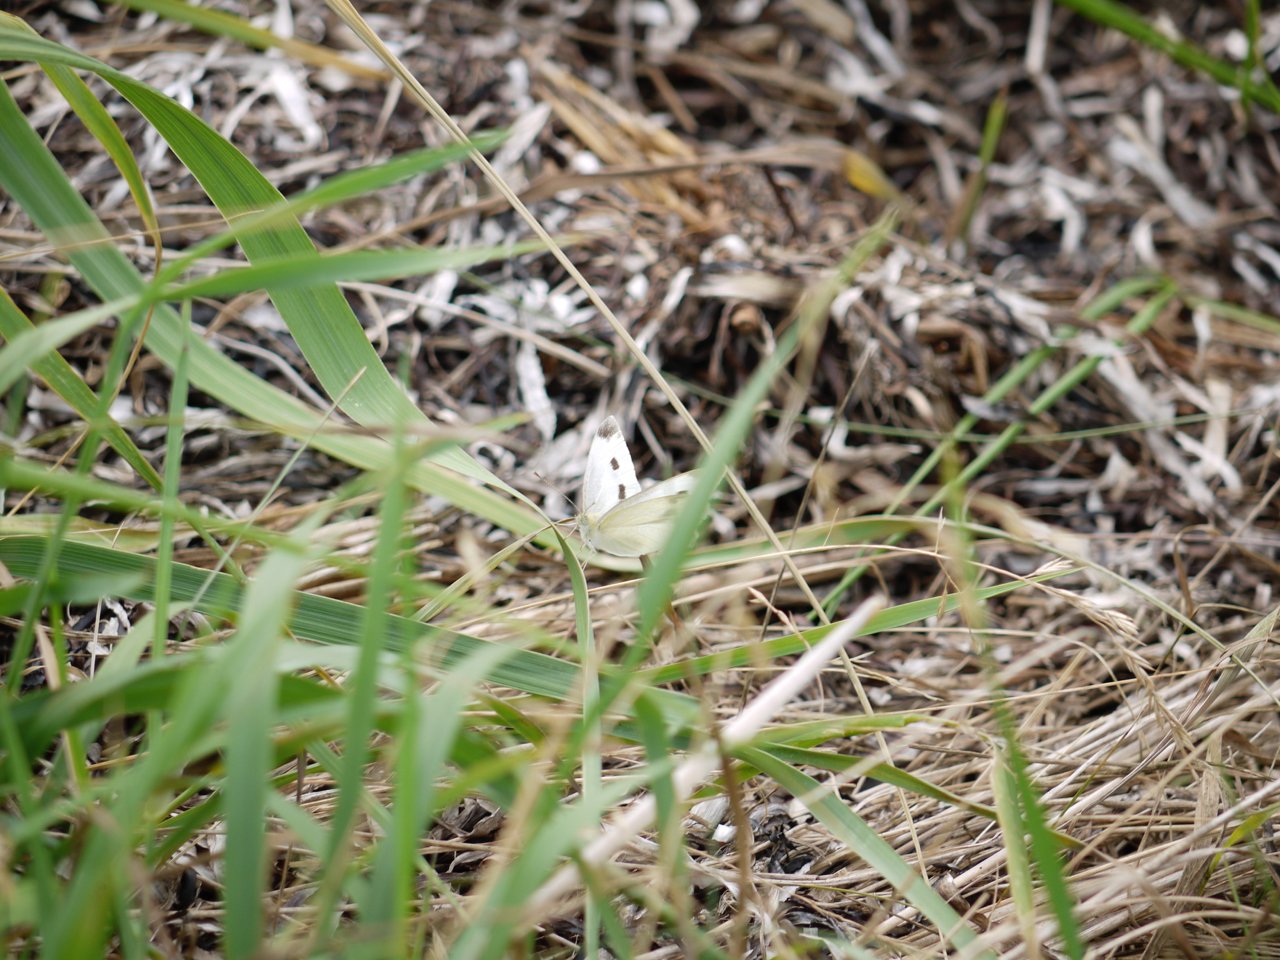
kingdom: Animalia
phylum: Arthropoda
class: Insecta
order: Lepidoptera
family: Pieridae
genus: Pieris
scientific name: Pieris rapae
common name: Cabbage White
